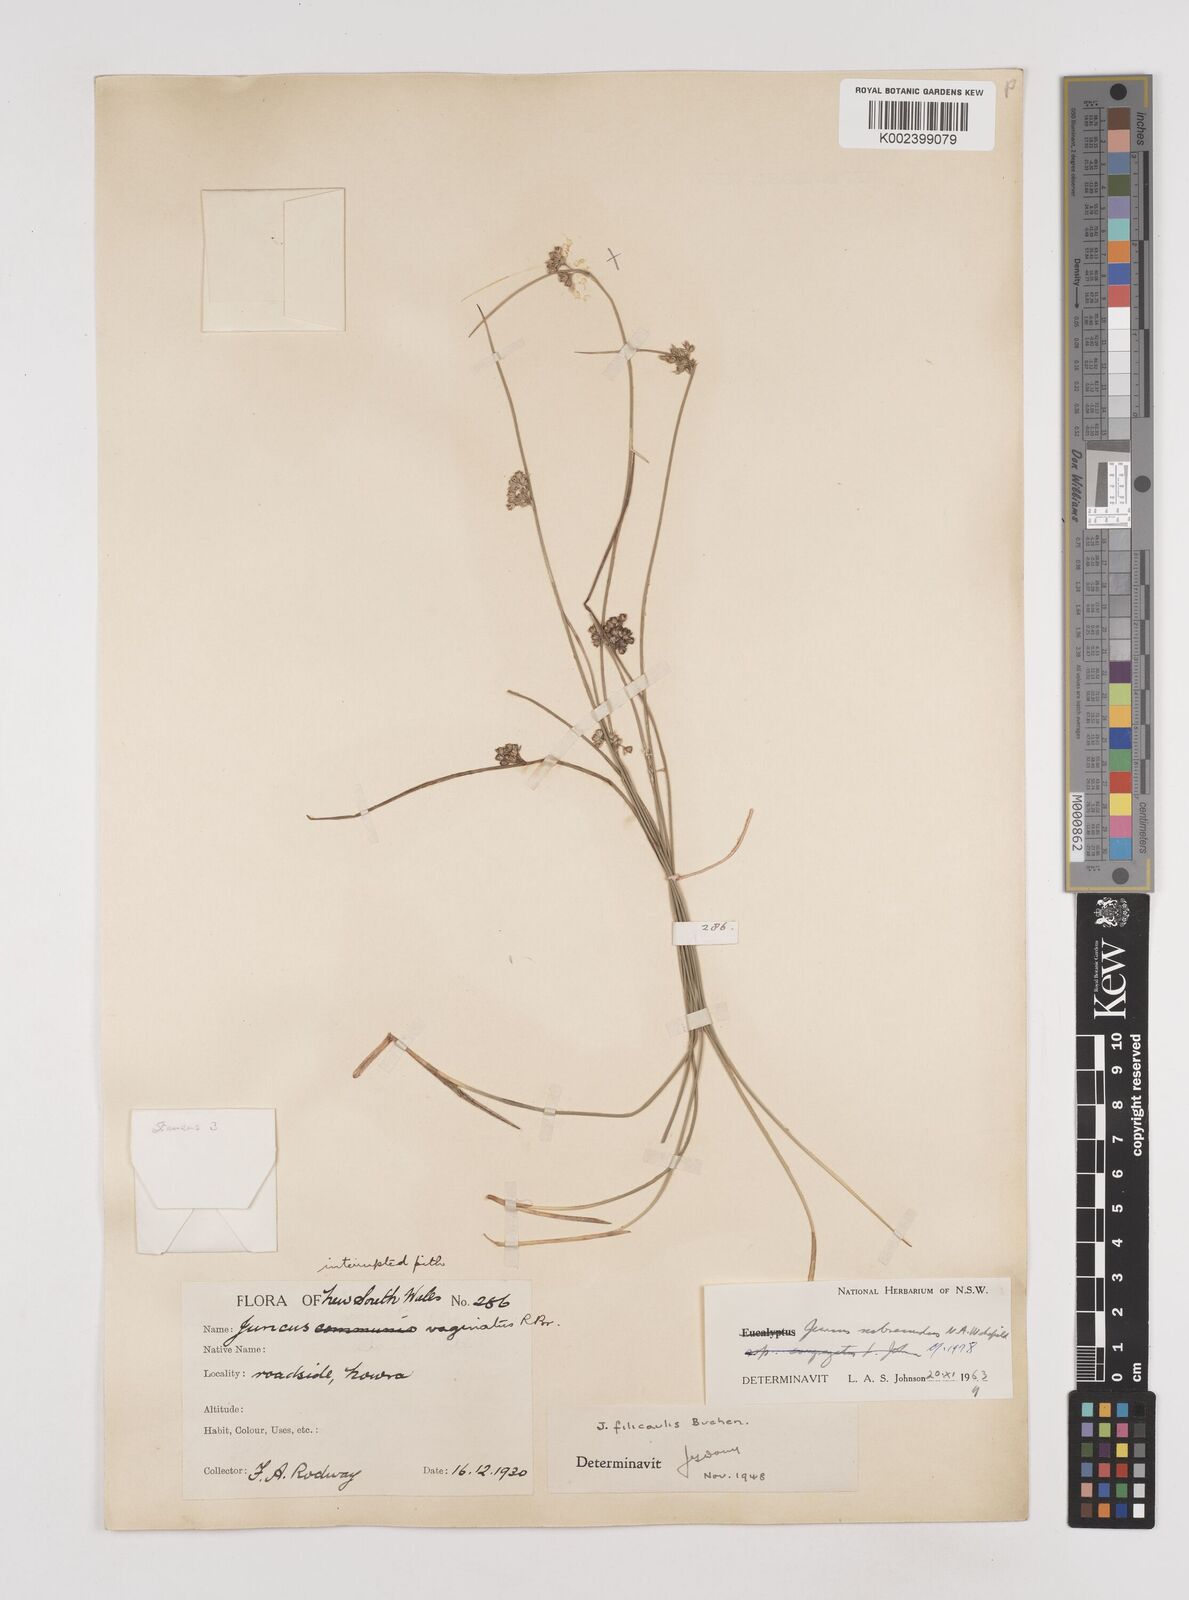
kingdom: Plantae
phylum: Tracheophyta
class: Liliopsida
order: Poales
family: Juncaceae
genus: Juncus
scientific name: Juncus subsecundus
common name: Fingered rush
